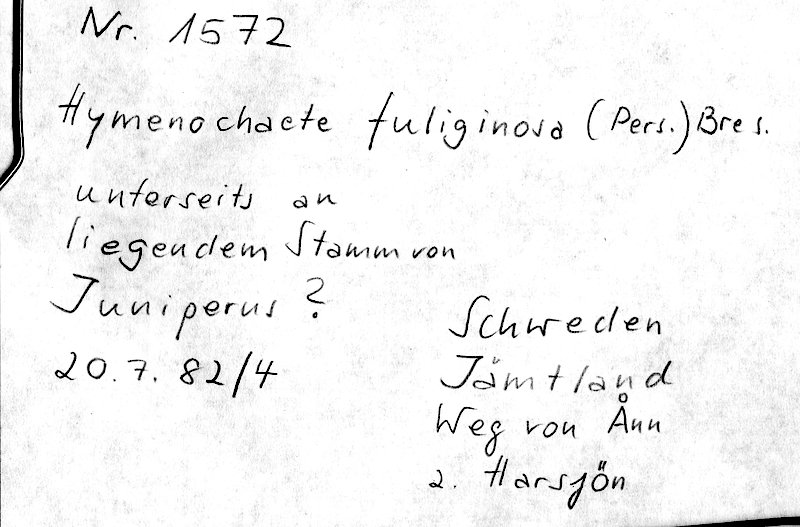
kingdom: Fungi
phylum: Basidiomycota
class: Agaricomycetes
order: Hymenochaetales
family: Hymenochaetaceae
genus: Hymenochaete
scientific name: Hymenochaete fuliginosa
